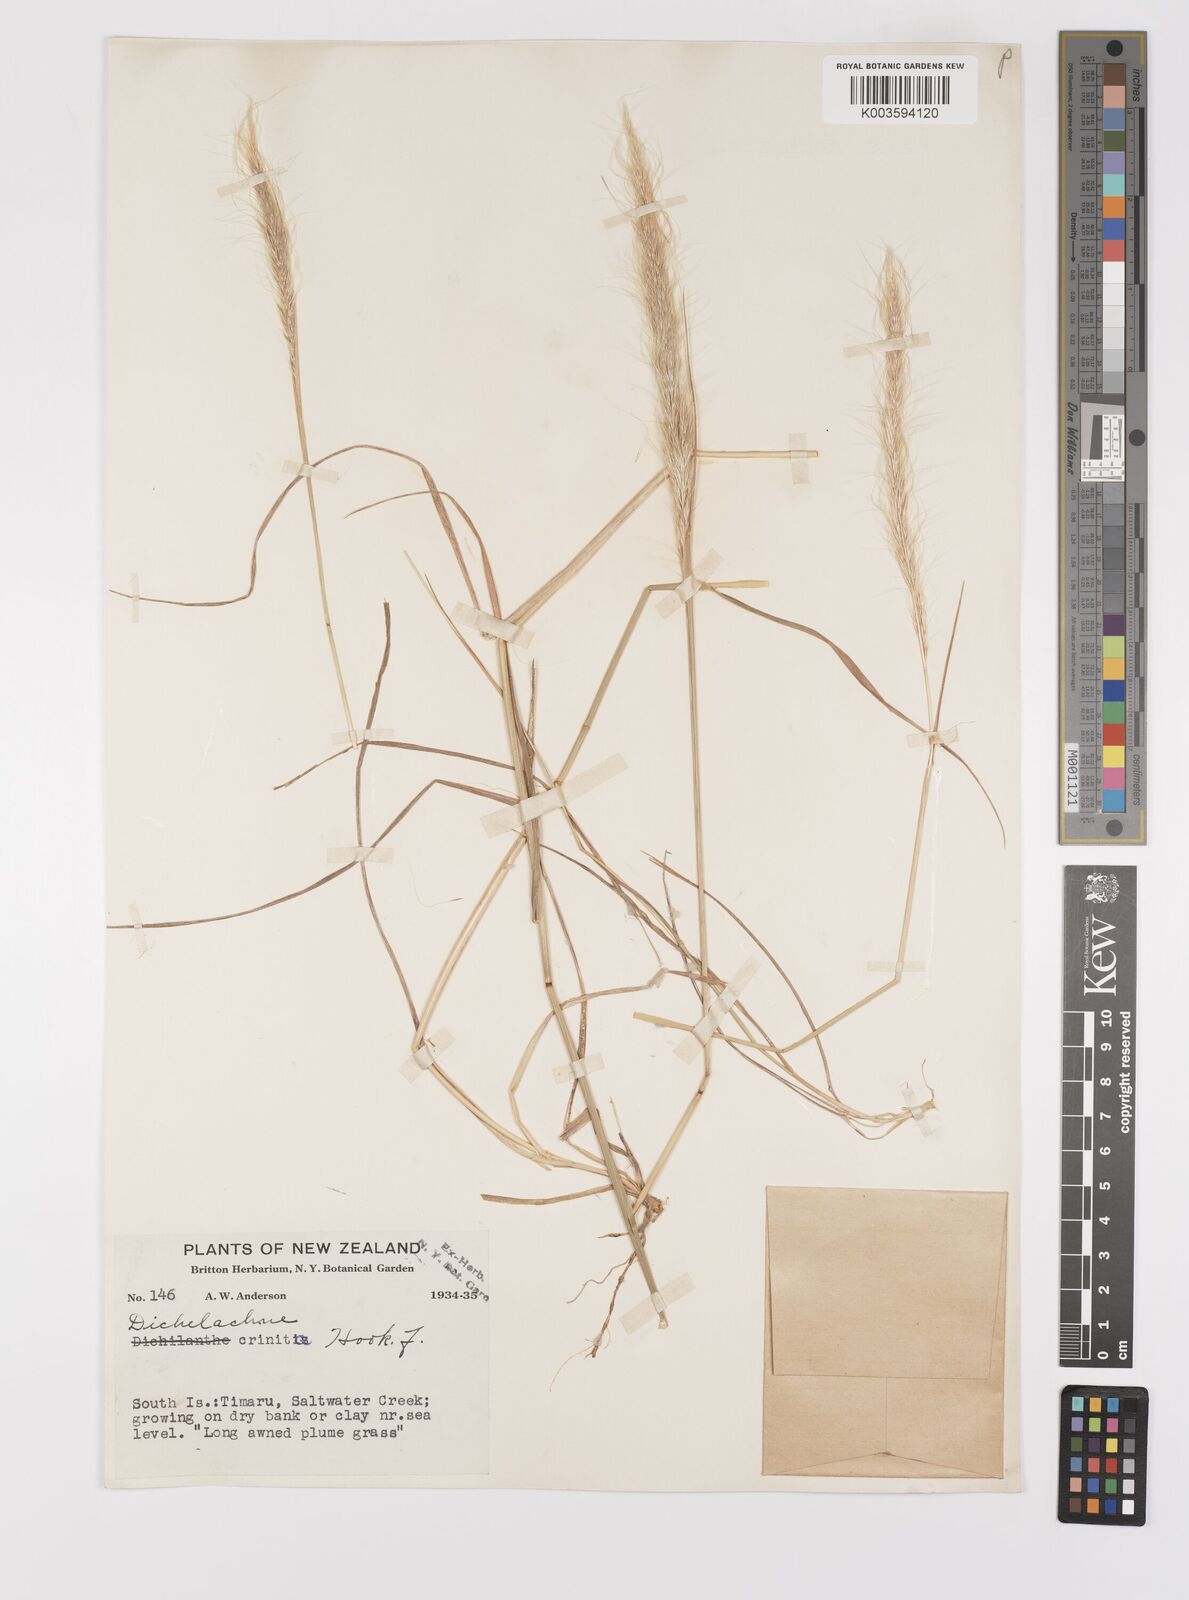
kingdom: Plantae
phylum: Tracheophyta
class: Liliopsida
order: Poales
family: Poaceae
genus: Dichelachne
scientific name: Dichelachne crinita
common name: Clovenfoot plumegrass
